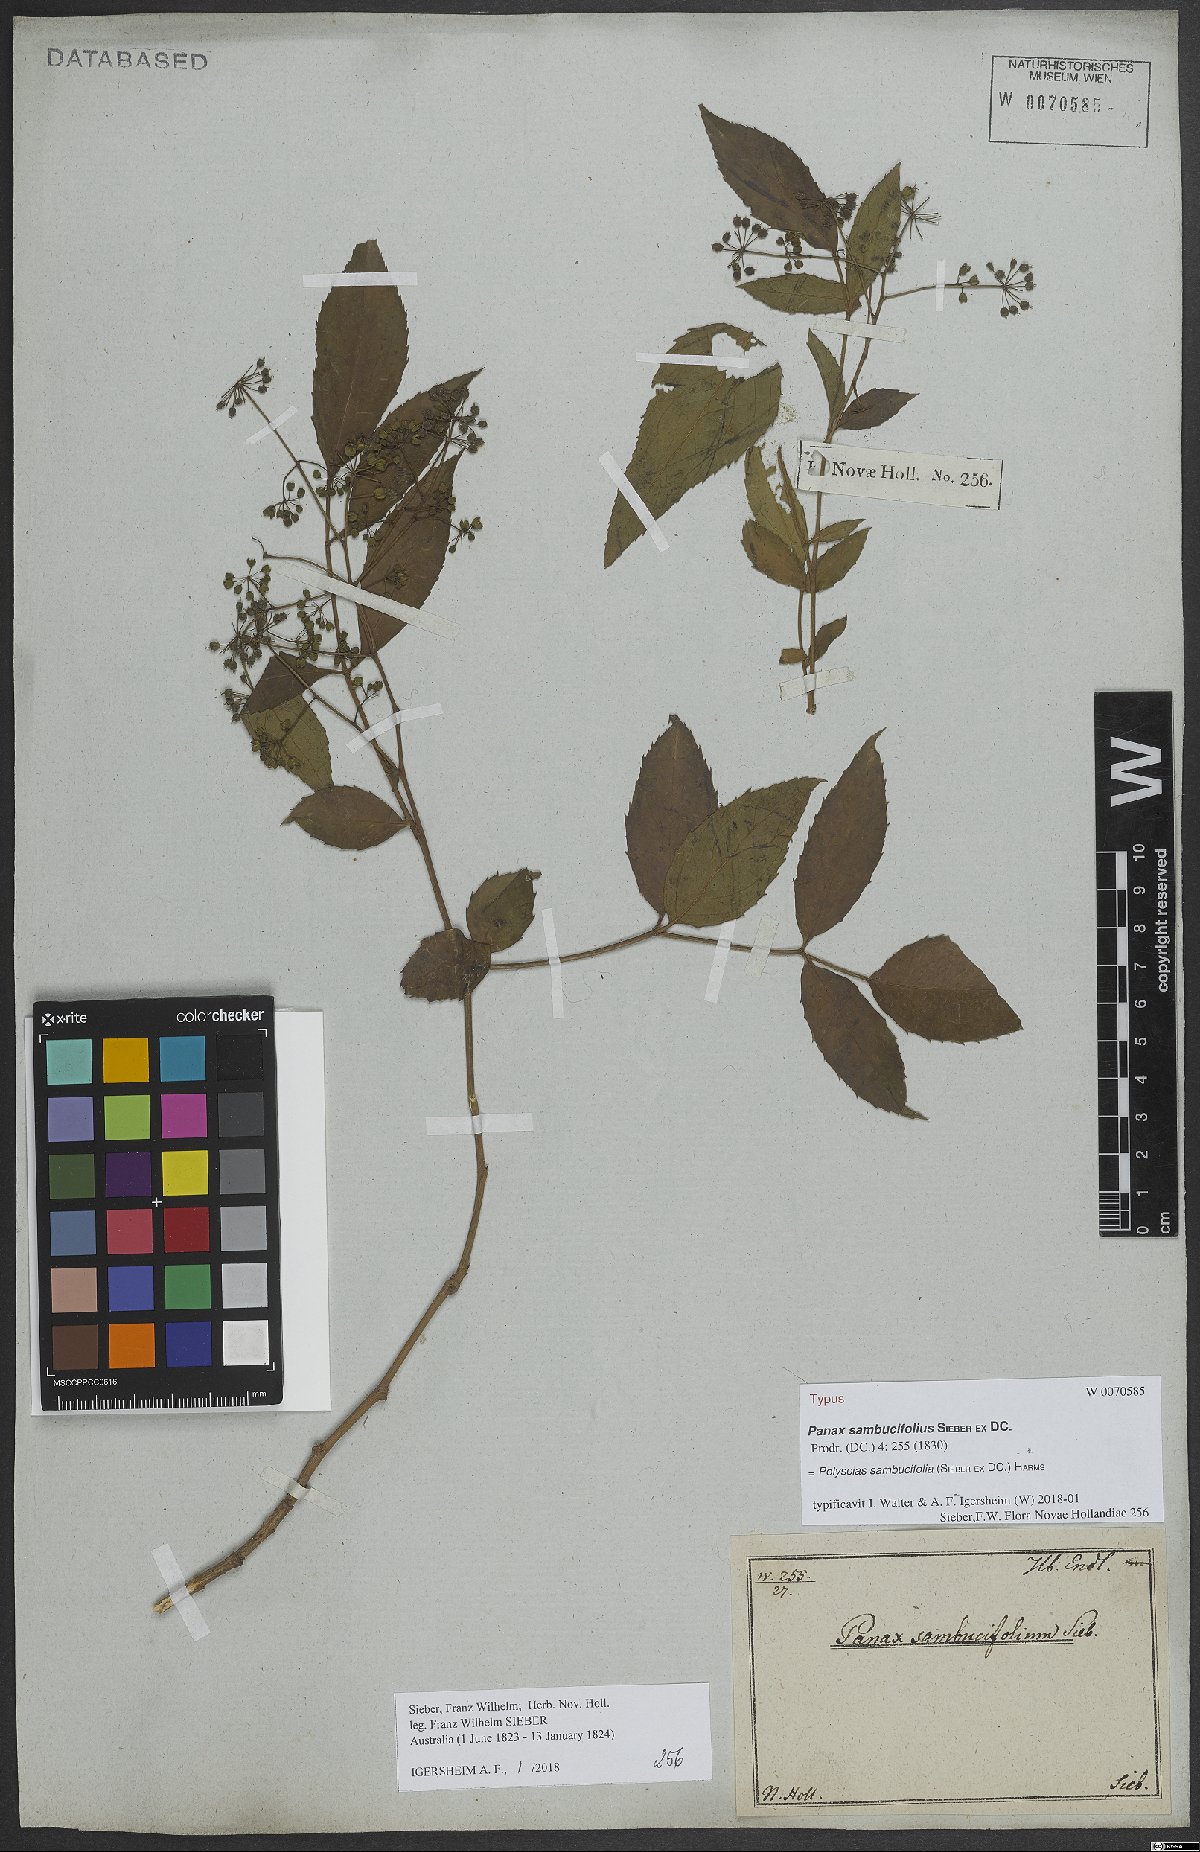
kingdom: Plantae
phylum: Tracheophyta
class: Magnoliopsida
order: Apiales
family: Araliaceae
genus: Polyscias
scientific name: Polyscias sambucifolia
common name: Elderberry-ash
